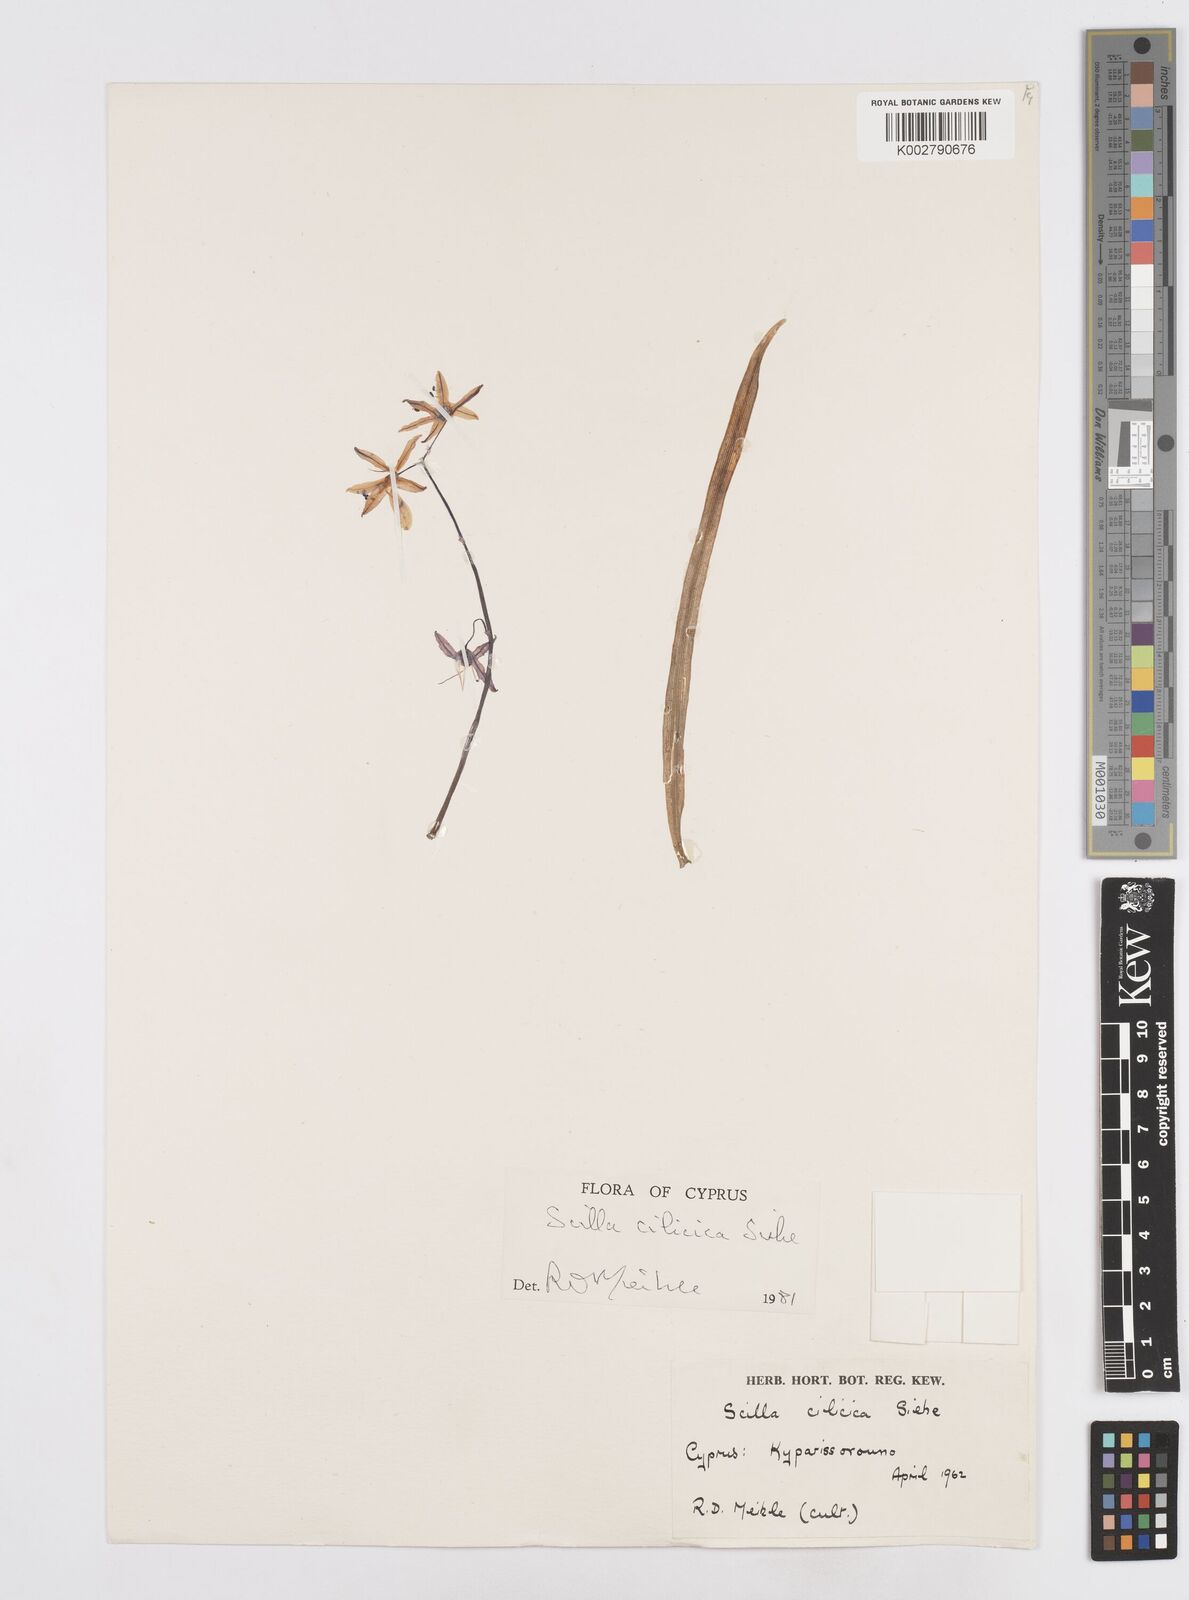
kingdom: Plantae
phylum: Tracheophyta
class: Liliopsida
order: Asparagales
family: Asparagaceae
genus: Scilla
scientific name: Scilla siberica
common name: Siberian squill
